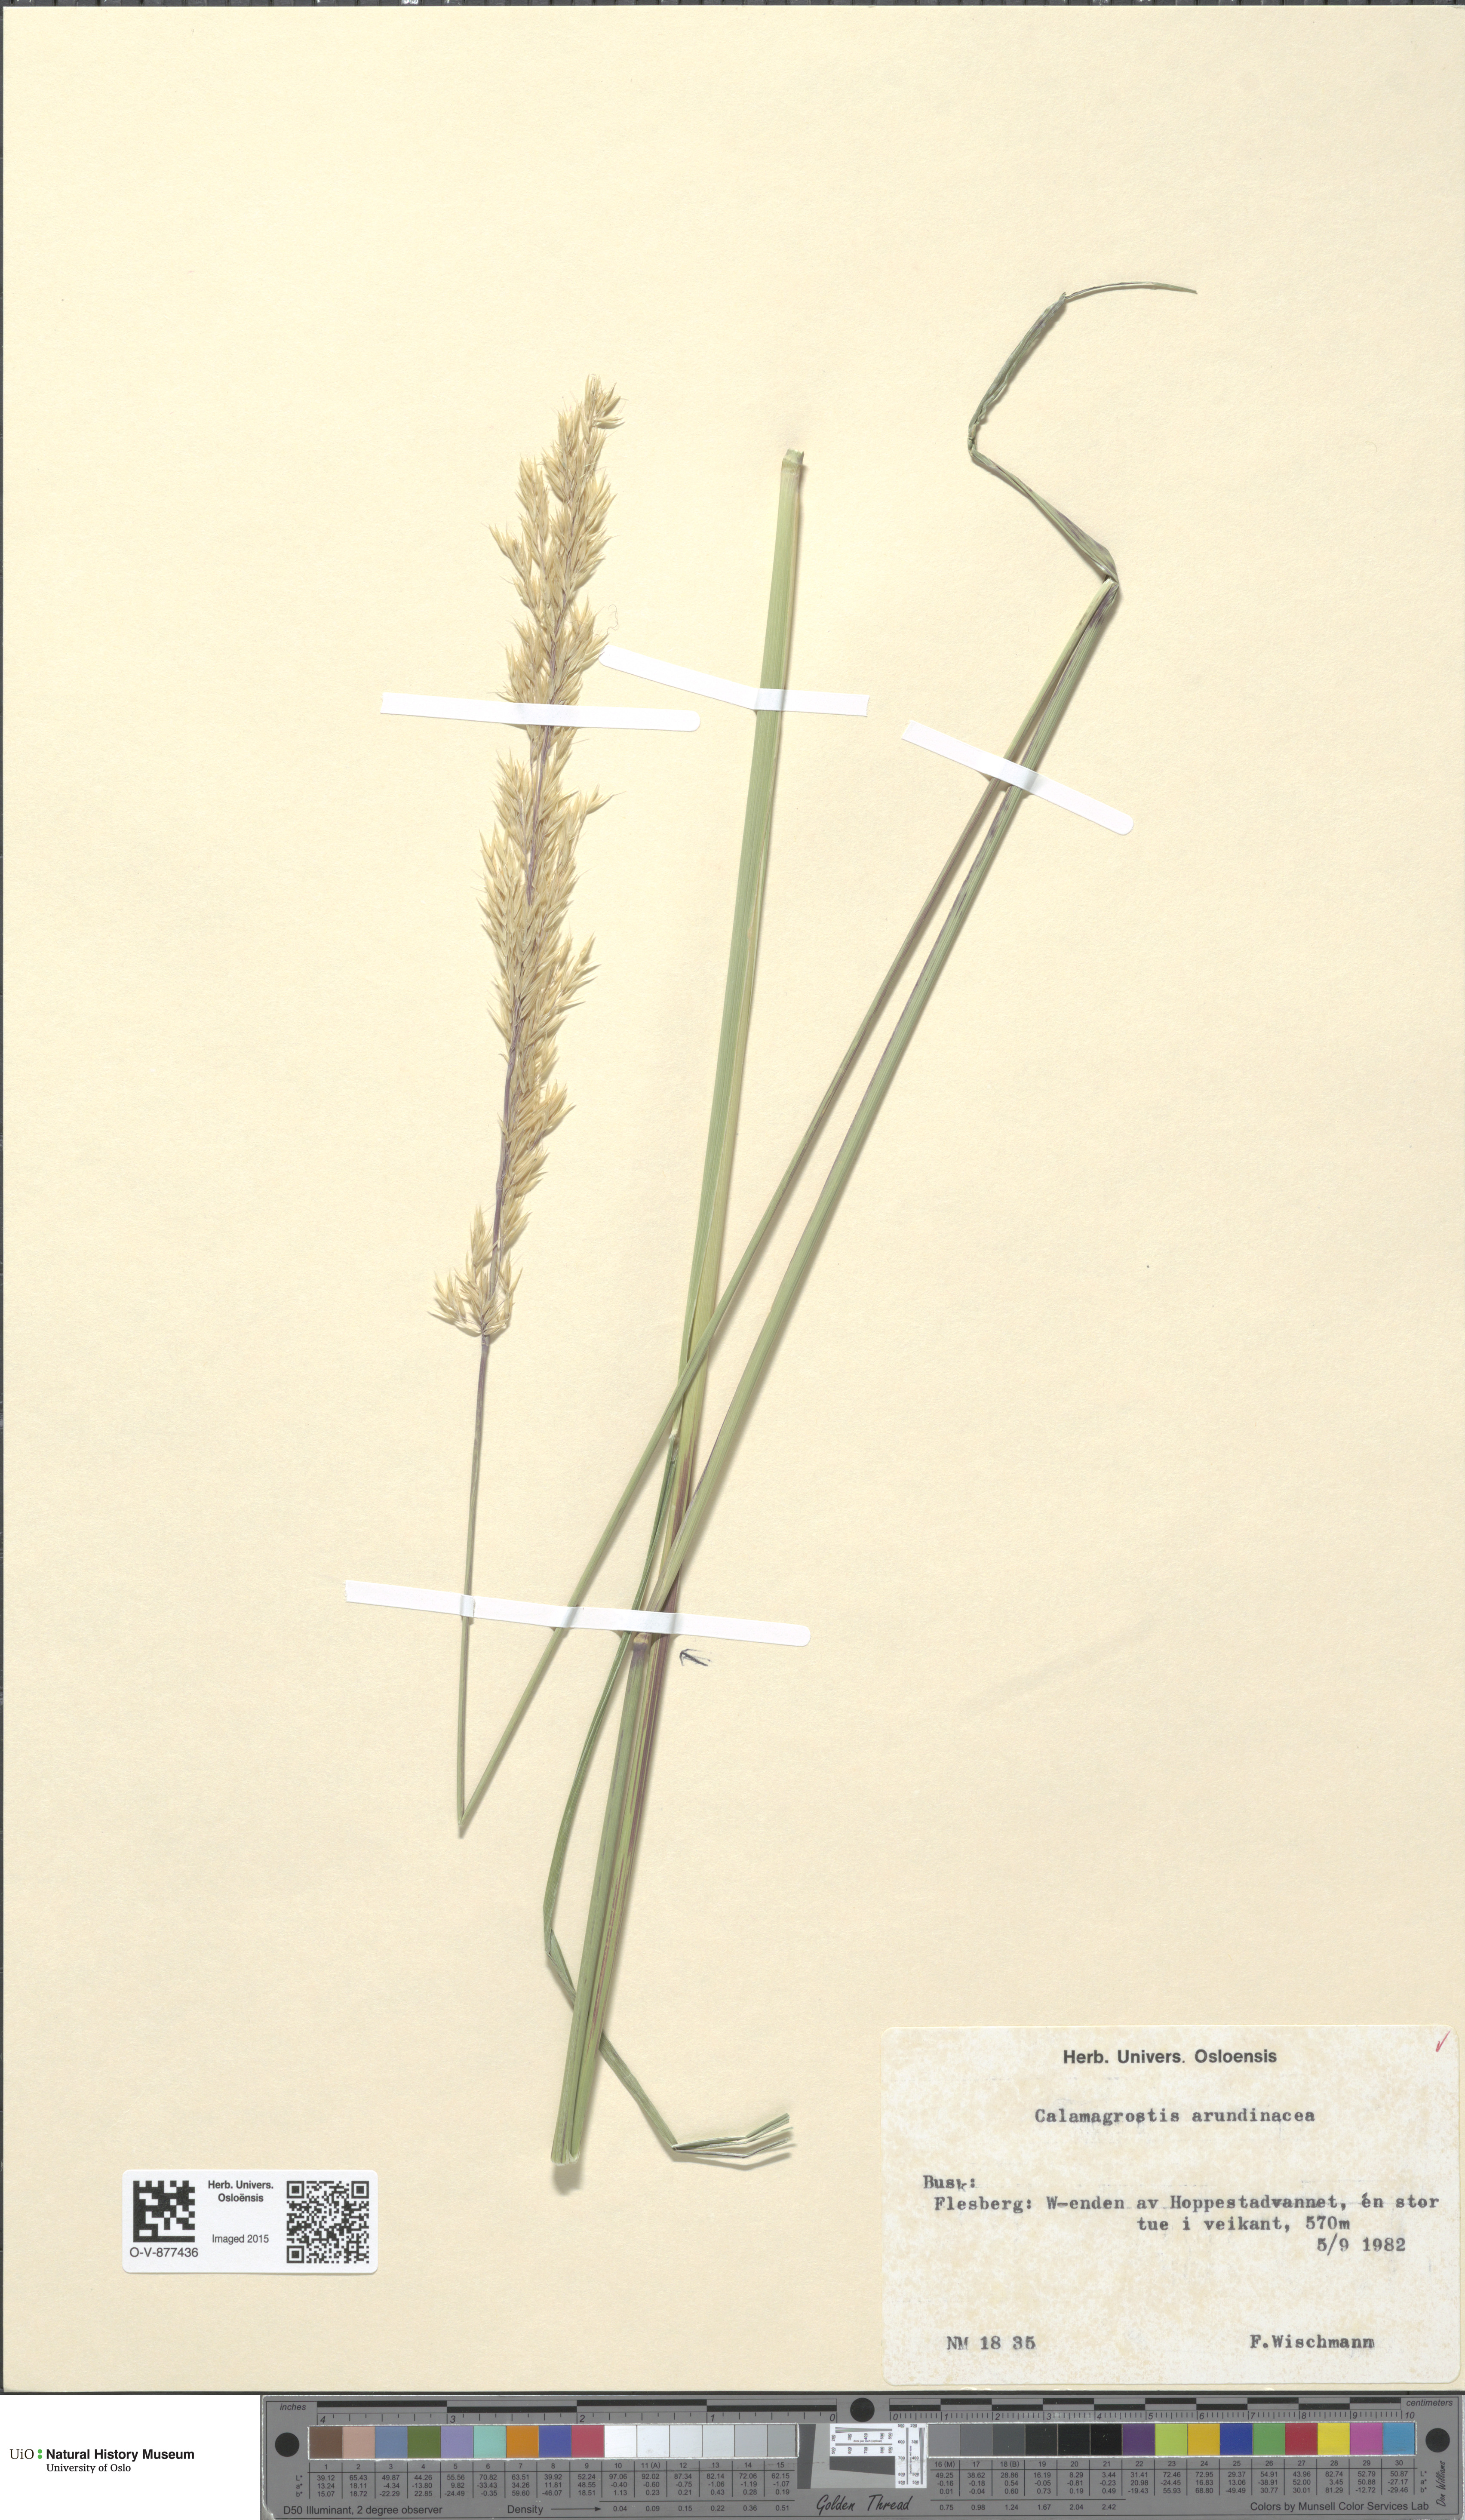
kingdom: Plantae
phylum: Tracheophyta
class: Liliopsida
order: Poales
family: Poaceae
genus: Calamagrostis
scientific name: Calamagrostis arundinacea
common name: Metskastik
